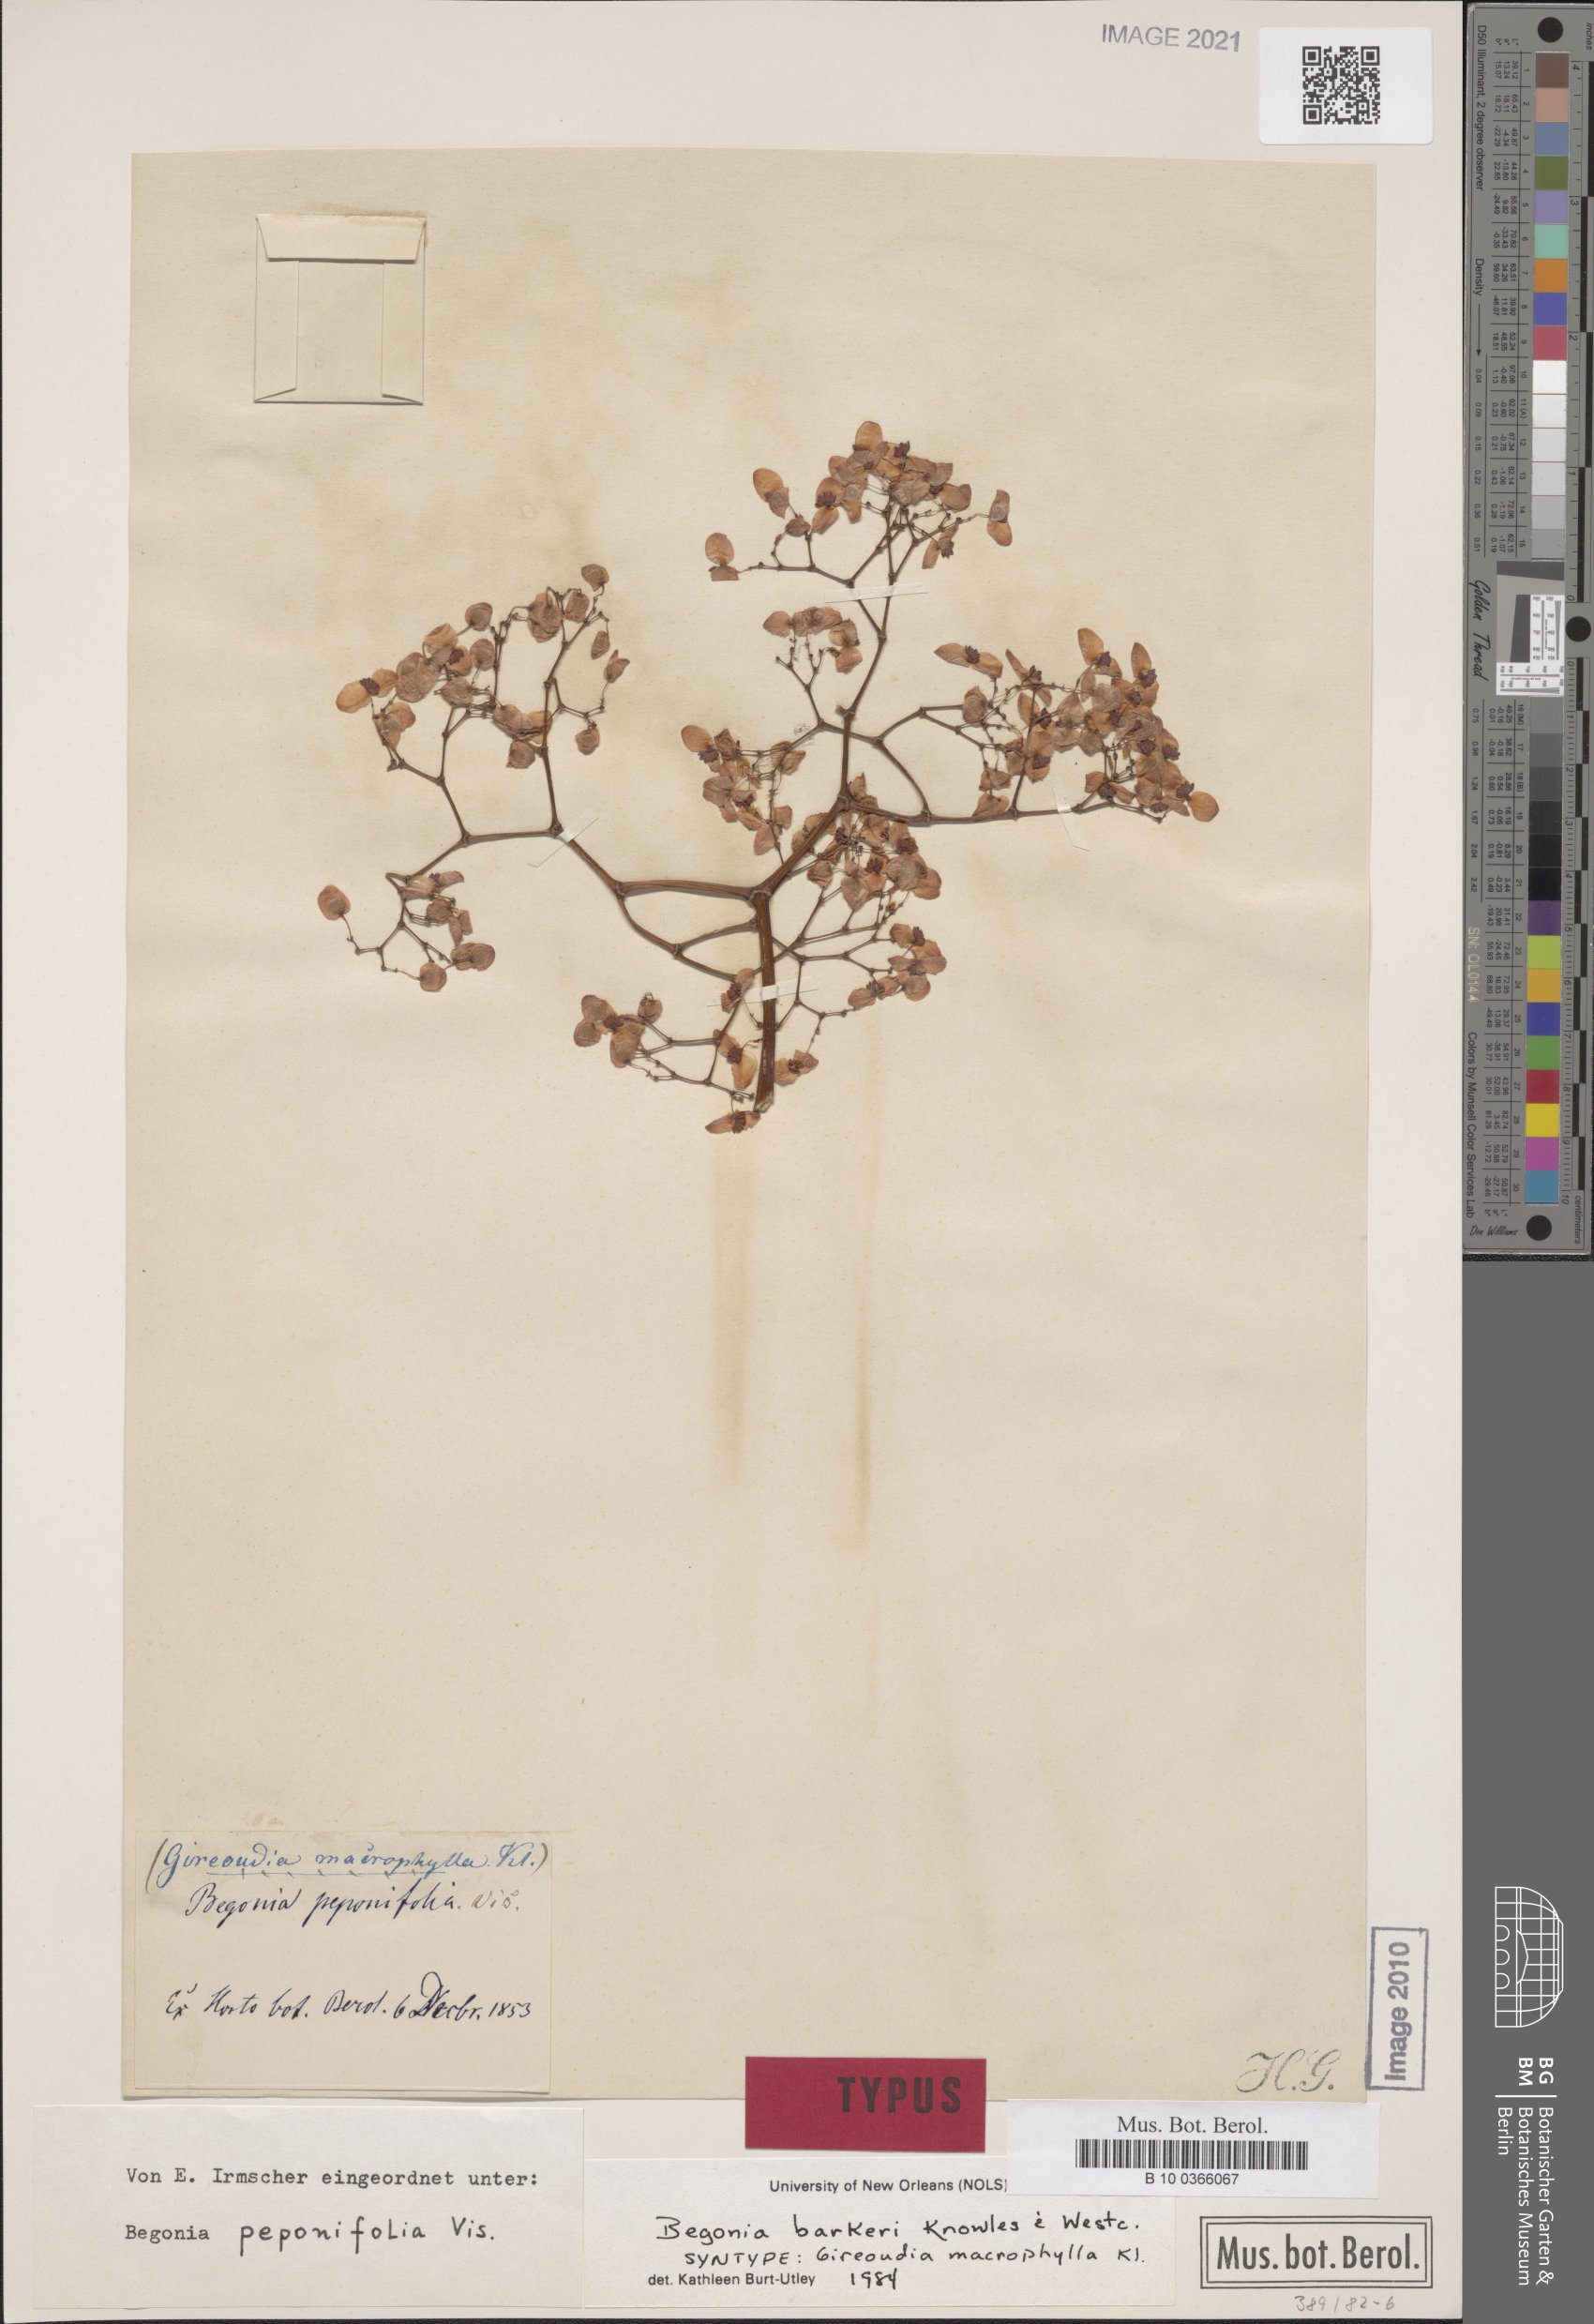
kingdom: Plantae
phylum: Tracheophyta
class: Magnoliopsida
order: Cucurbitales
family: Begoniaceae
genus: Begonia
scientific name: Begonia barkeri
